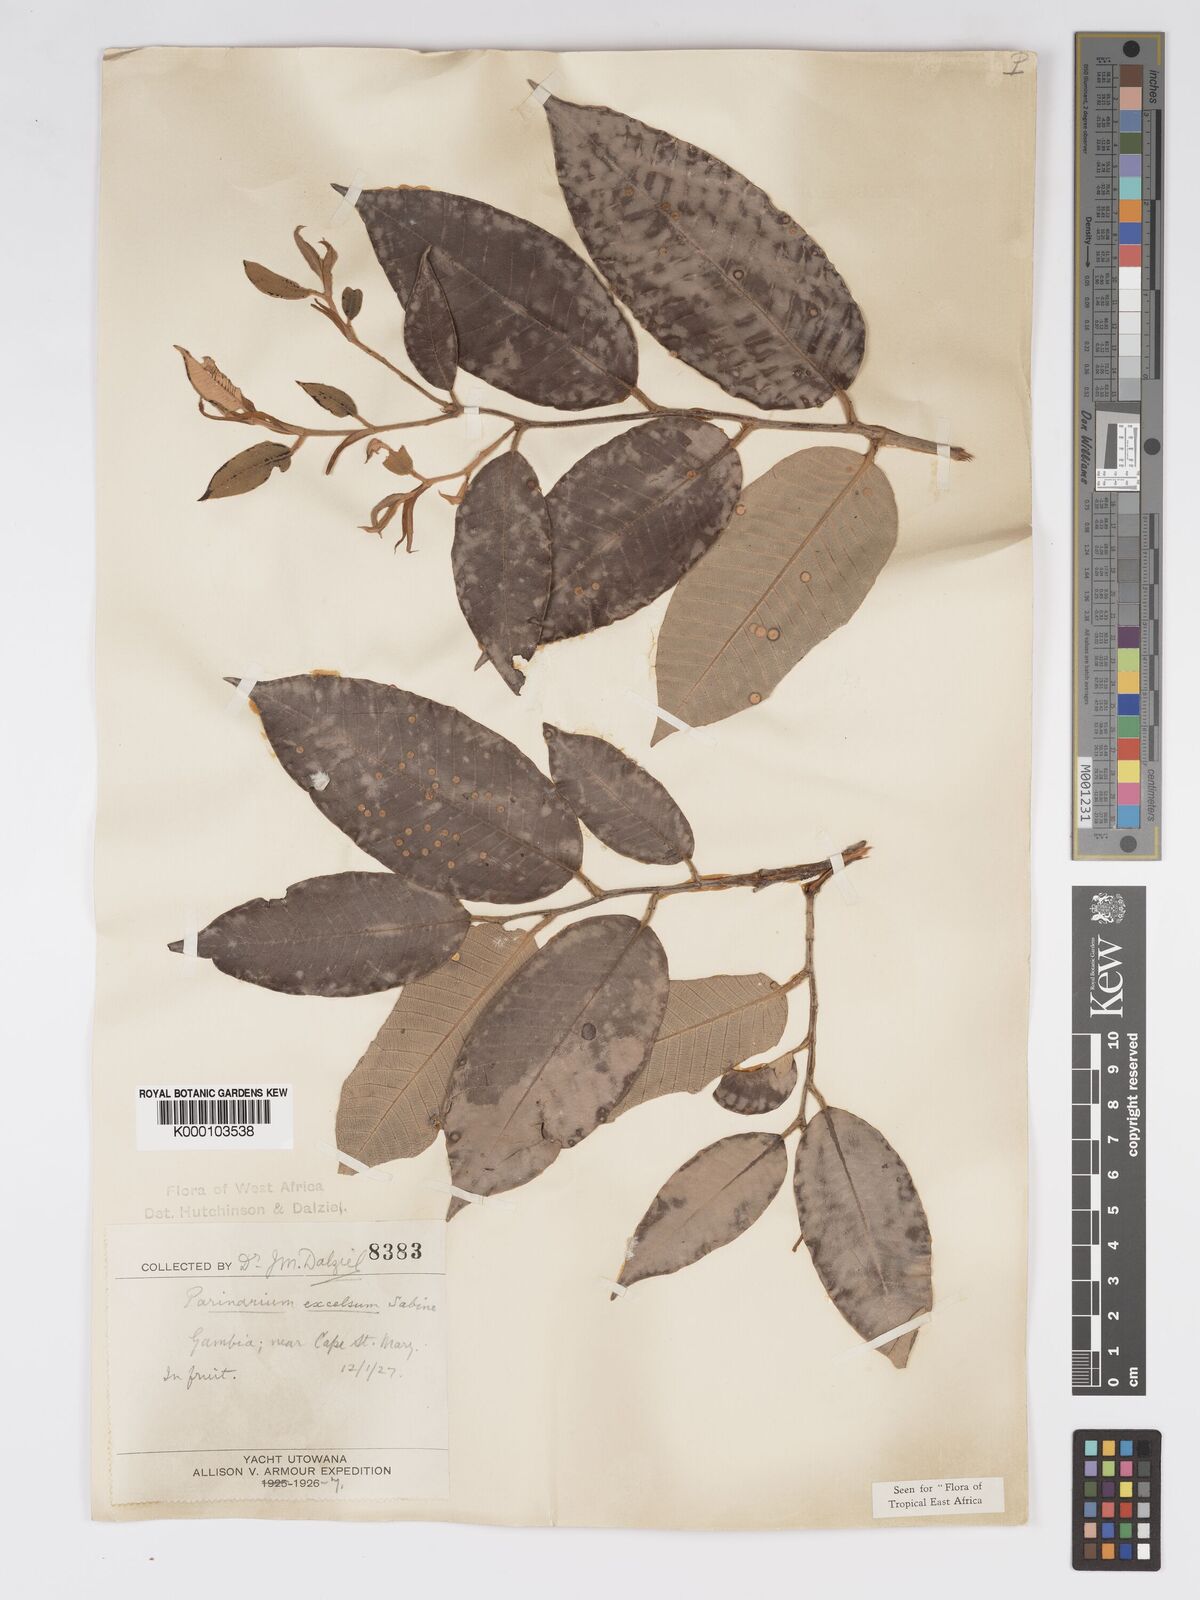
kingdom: Plantae
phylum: Tracheophyta
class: Magnoliopsida
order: Malpighiales
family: Chrysobalanaceae
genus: Parinari
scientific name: Parinari excelsa
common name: Guinea-plum
